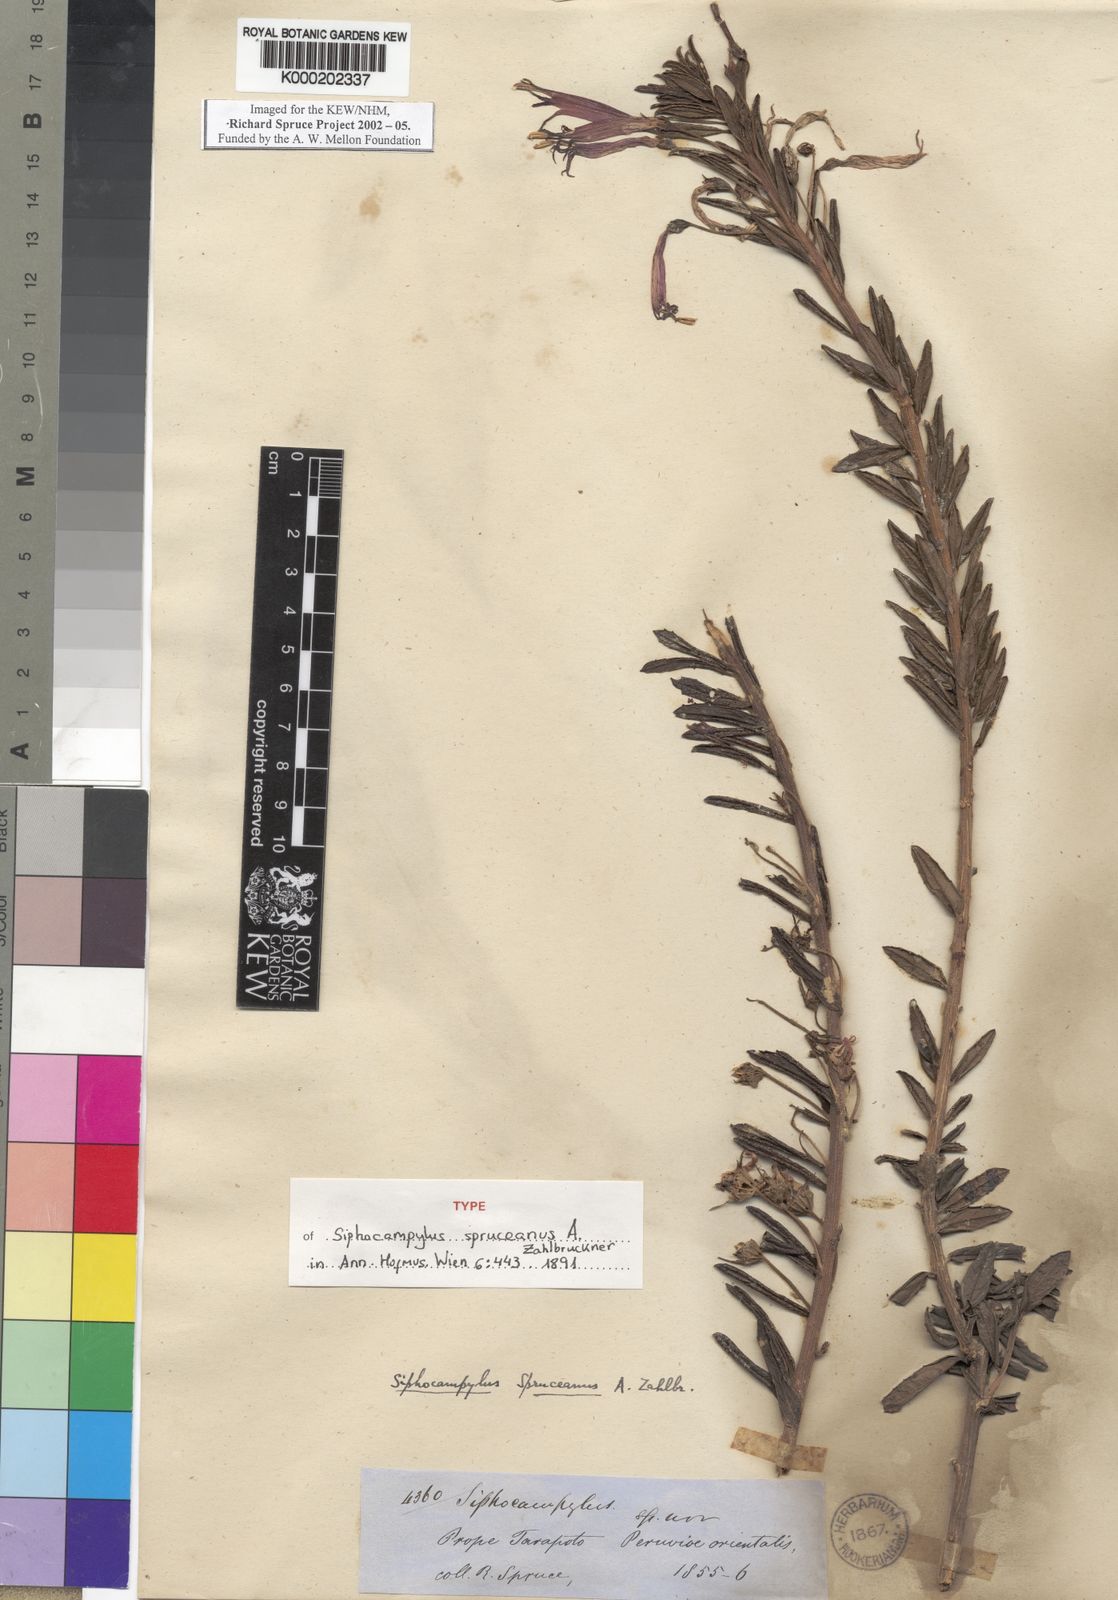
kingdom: Plantae
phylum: Tracheophyta
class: Magnoliopsida
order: Asterales
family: Campanulaceae
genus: Siphocampylus
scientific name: Siphocampylus spruceanus
